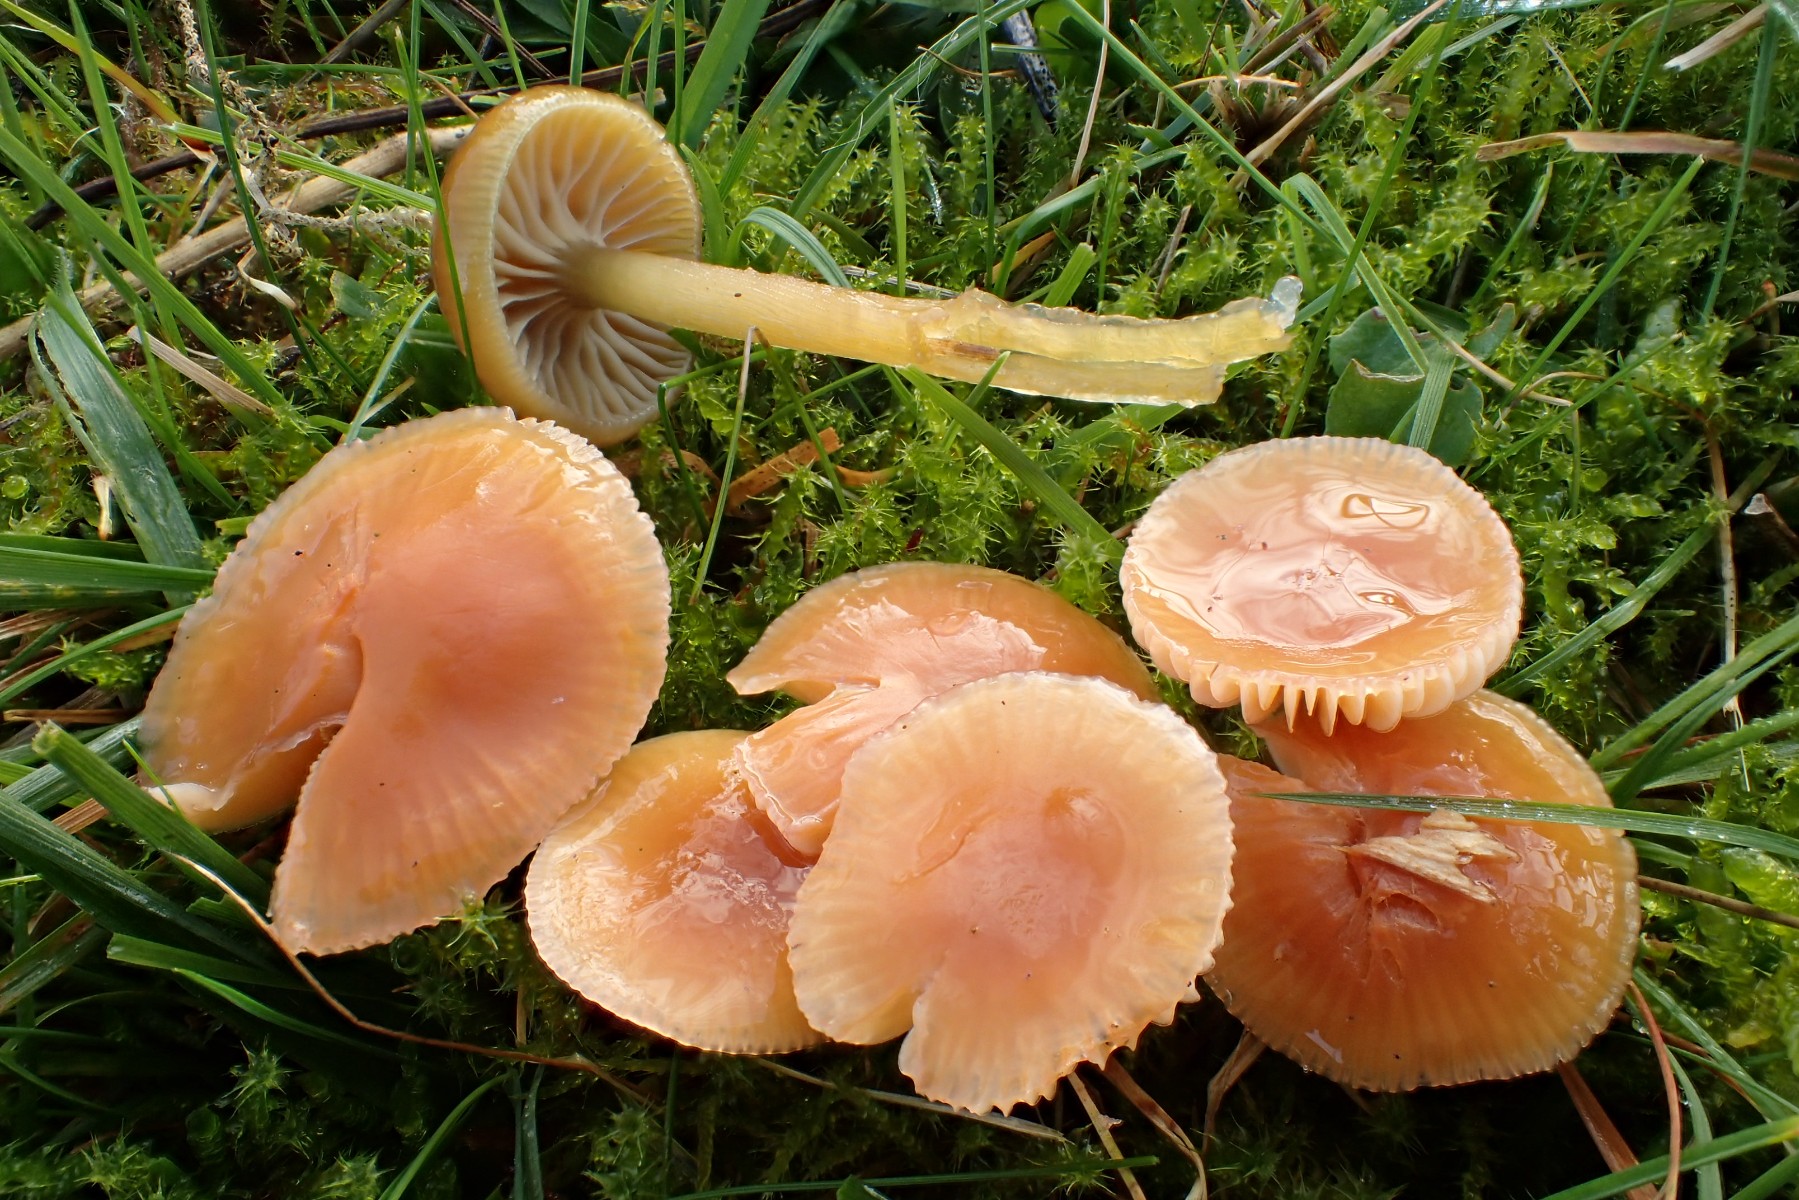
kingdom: Fungi
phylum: Basidiomycota
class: Agaricomycetes
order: Agaricales
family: Hygrophoraceae
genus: Gliophorus
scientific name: Gliophorus laetus
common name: brusk-vokshat
